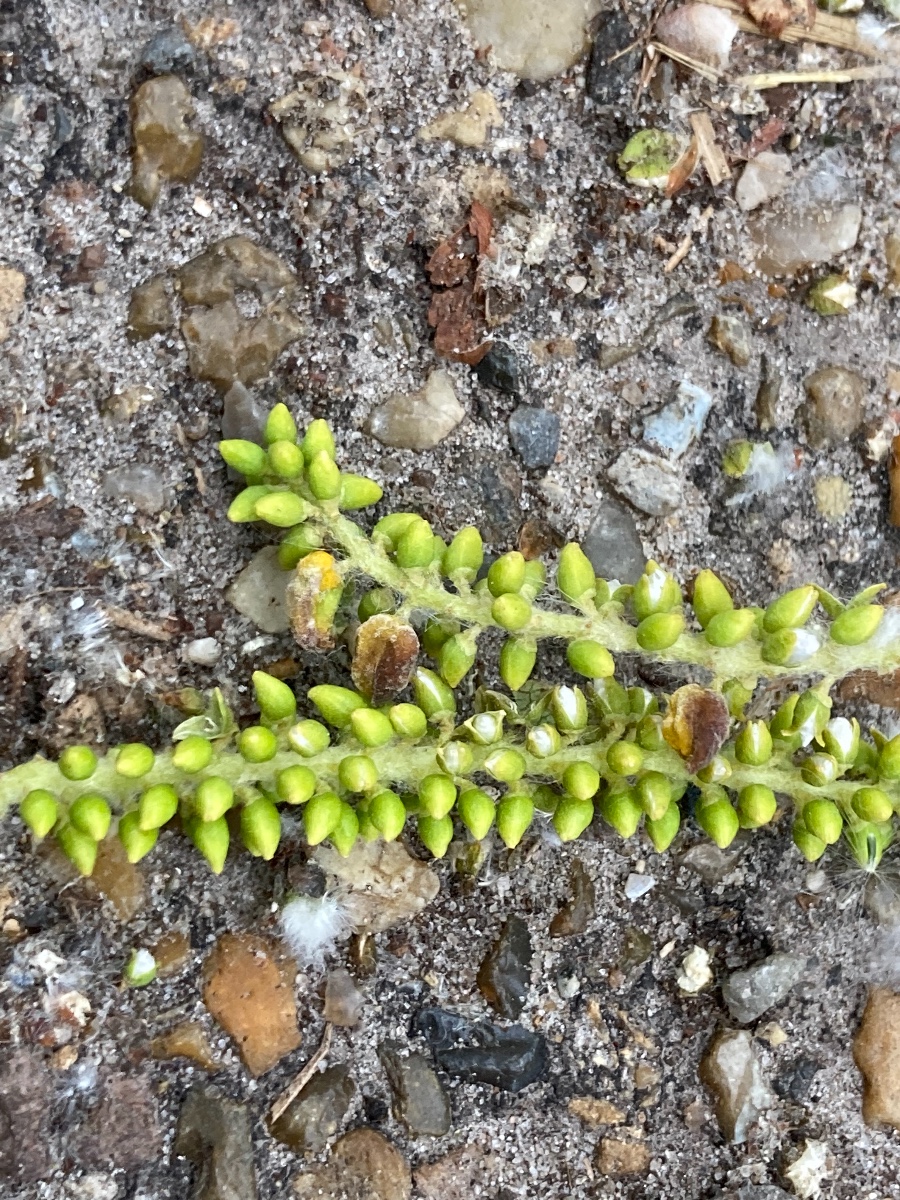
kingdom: Fungi
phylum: Ascomycota
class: Taphrinomycetes
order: Taphrinales
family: Taphrinaceae
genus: Taphrina
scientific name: Taphrina johansonii
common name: Aspen tongue
